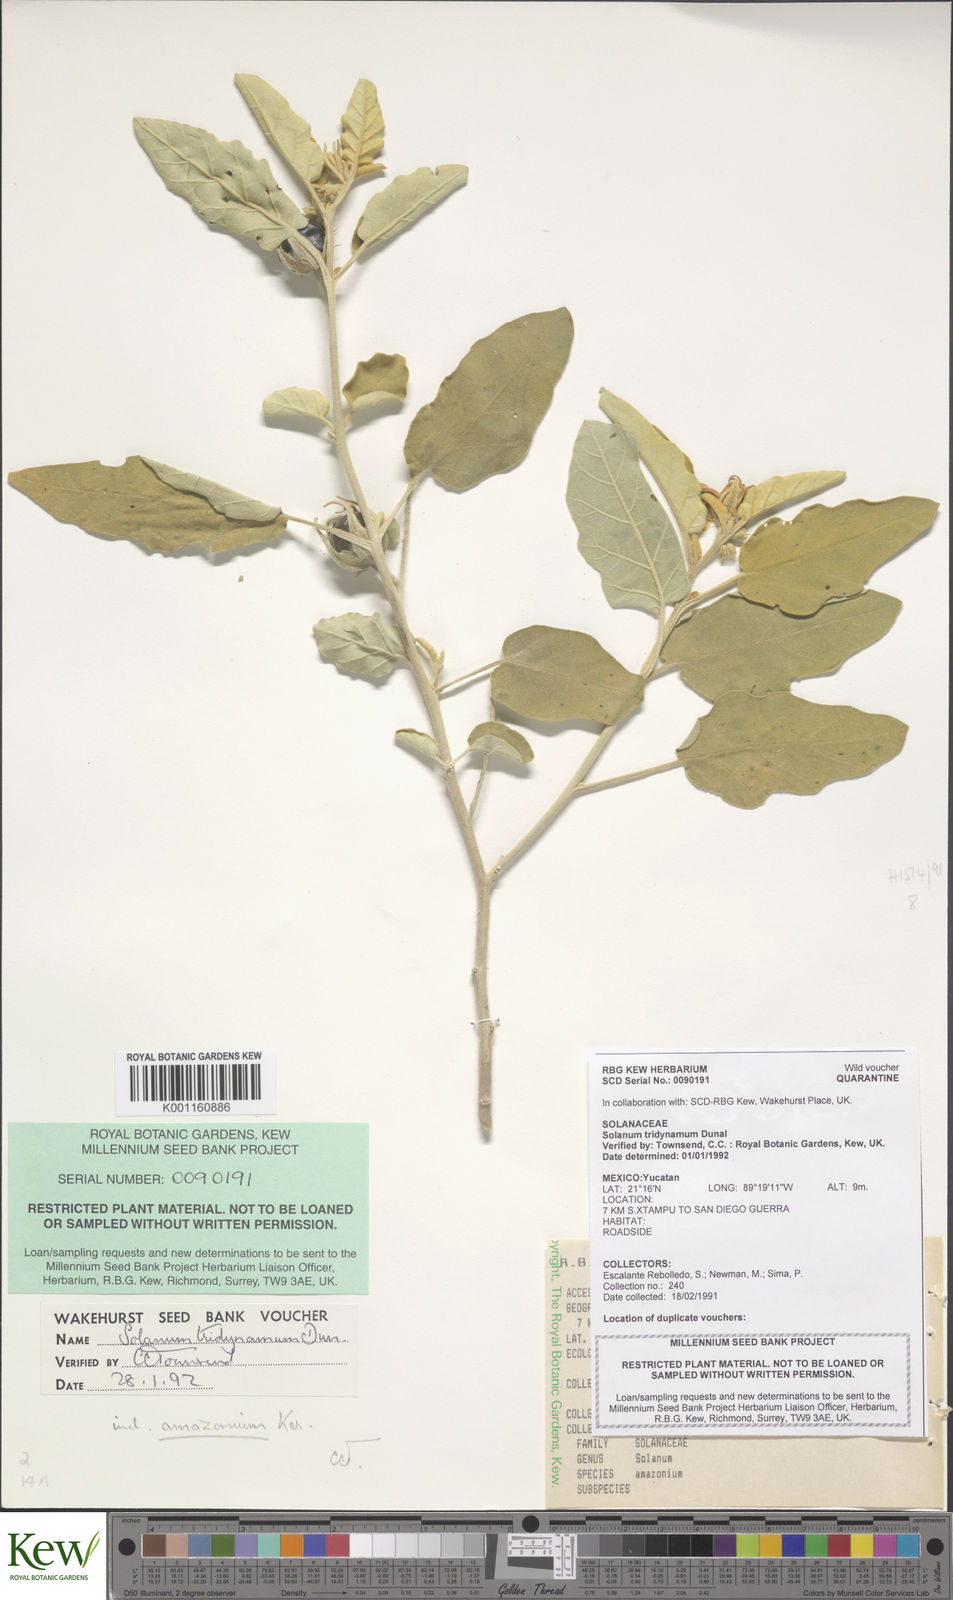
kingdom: Plantae
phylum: Tracheophyta
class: Magnoliopsida
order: Solanales
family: Solanaceae
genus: Solanum
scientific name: Solanum houstonii
